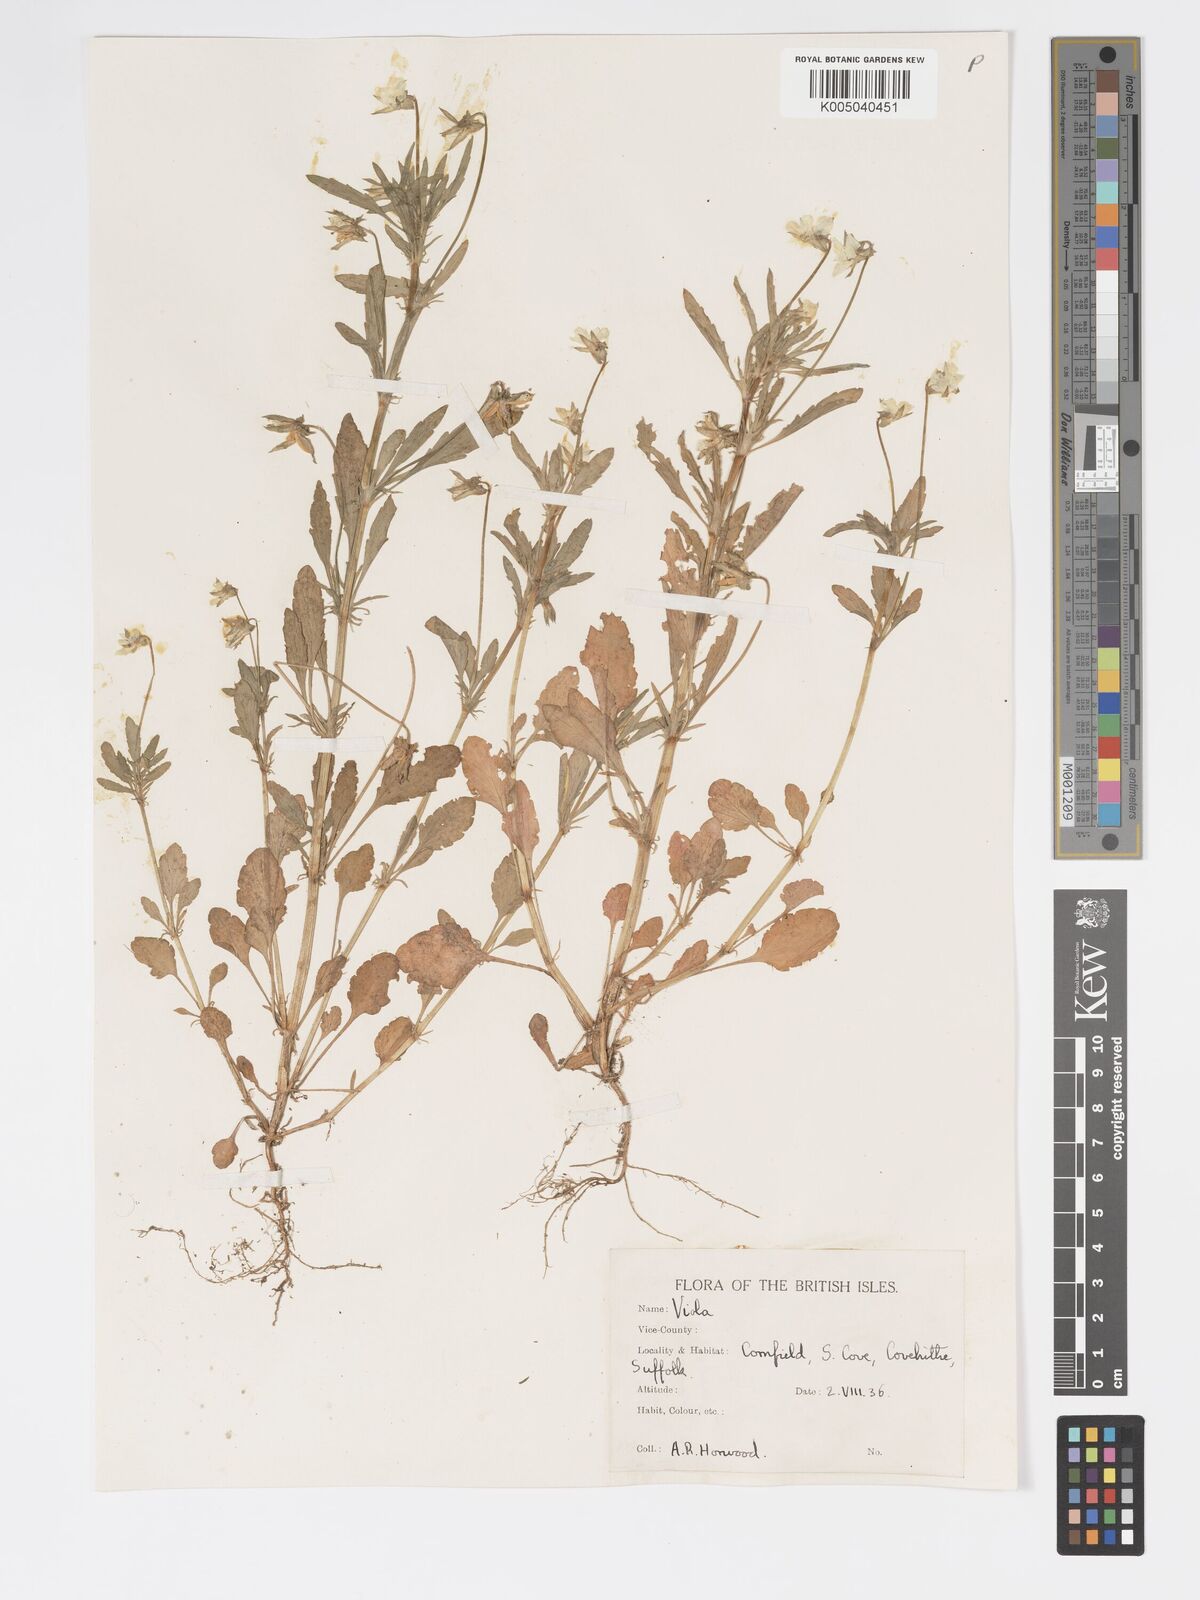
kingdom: Plantae
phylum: Tracheophyta
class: Magnoliopsida
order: Malpighiales
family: Violaceae
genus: Viola
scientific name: Viola arvensis
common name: Field pansy
